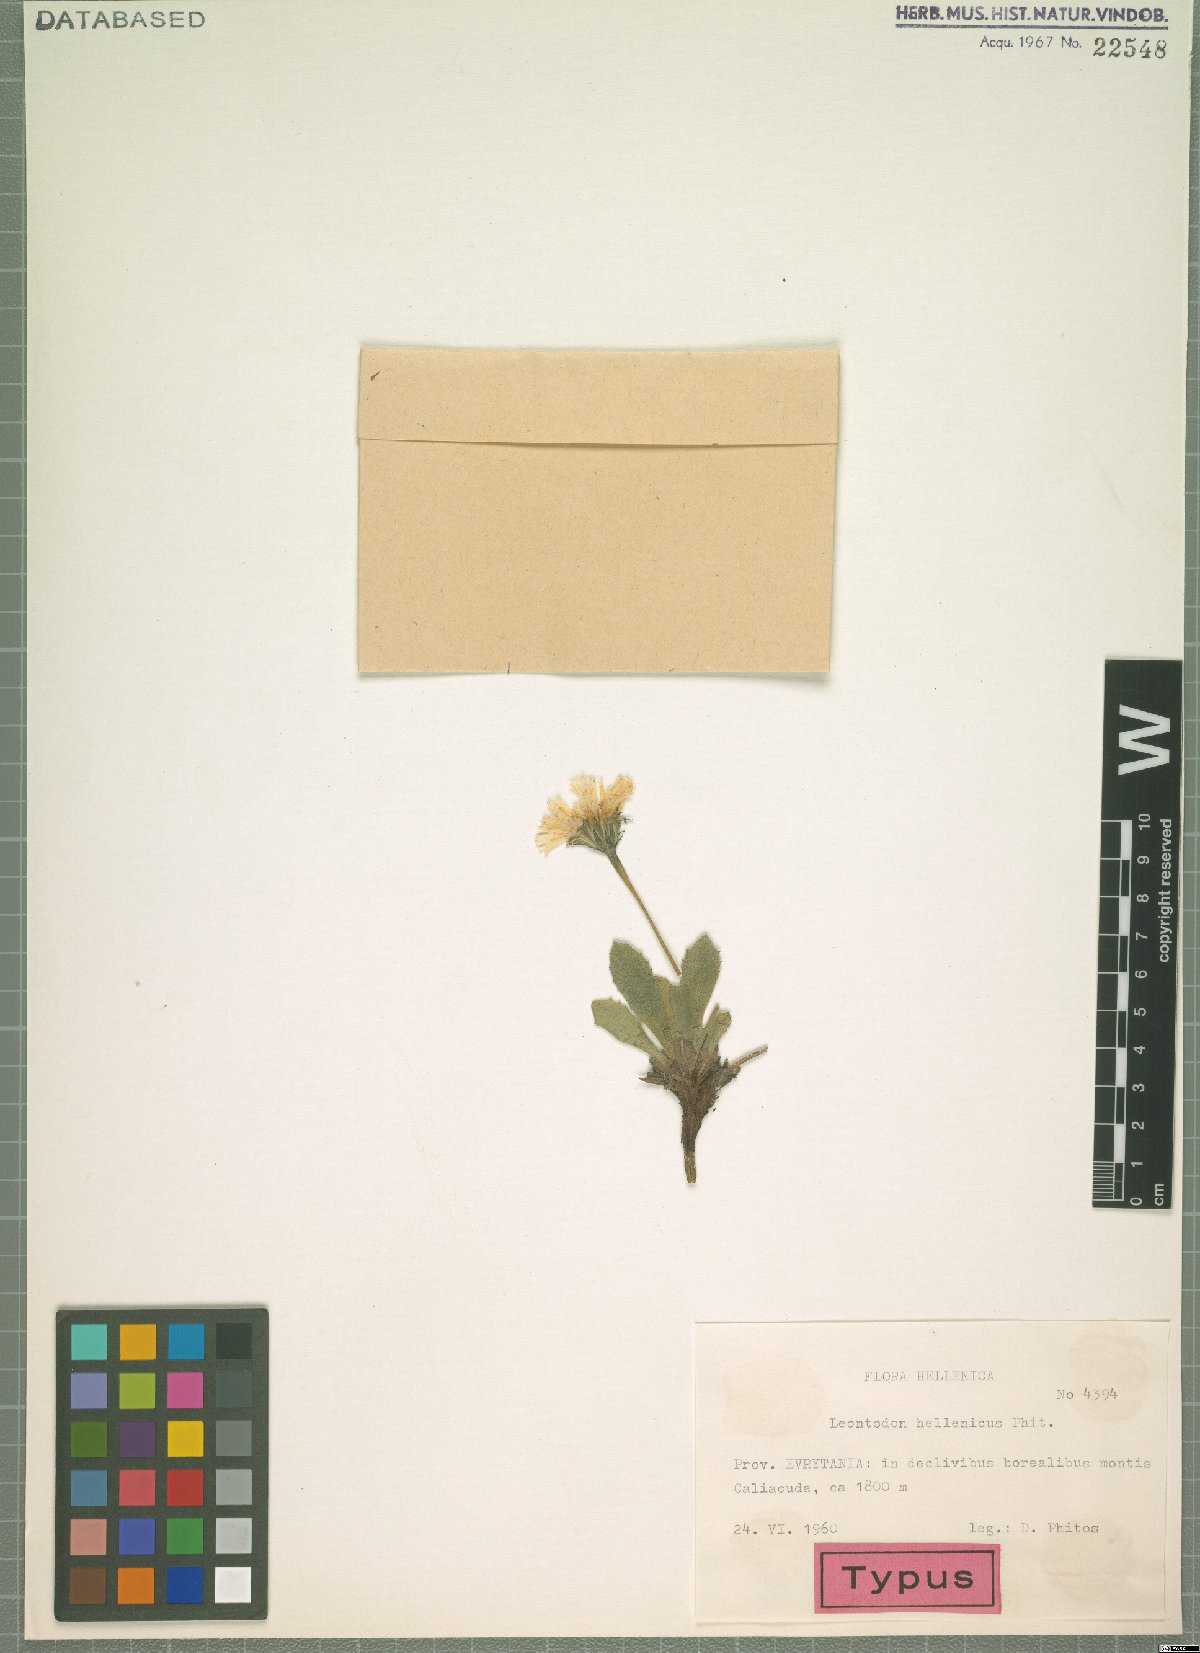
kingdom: Plantae
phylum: Tracheophyta
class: Magnoliopsida
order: Asterales
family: Asteraceae
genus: Leontodon
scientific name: Leontodon hellenicus
